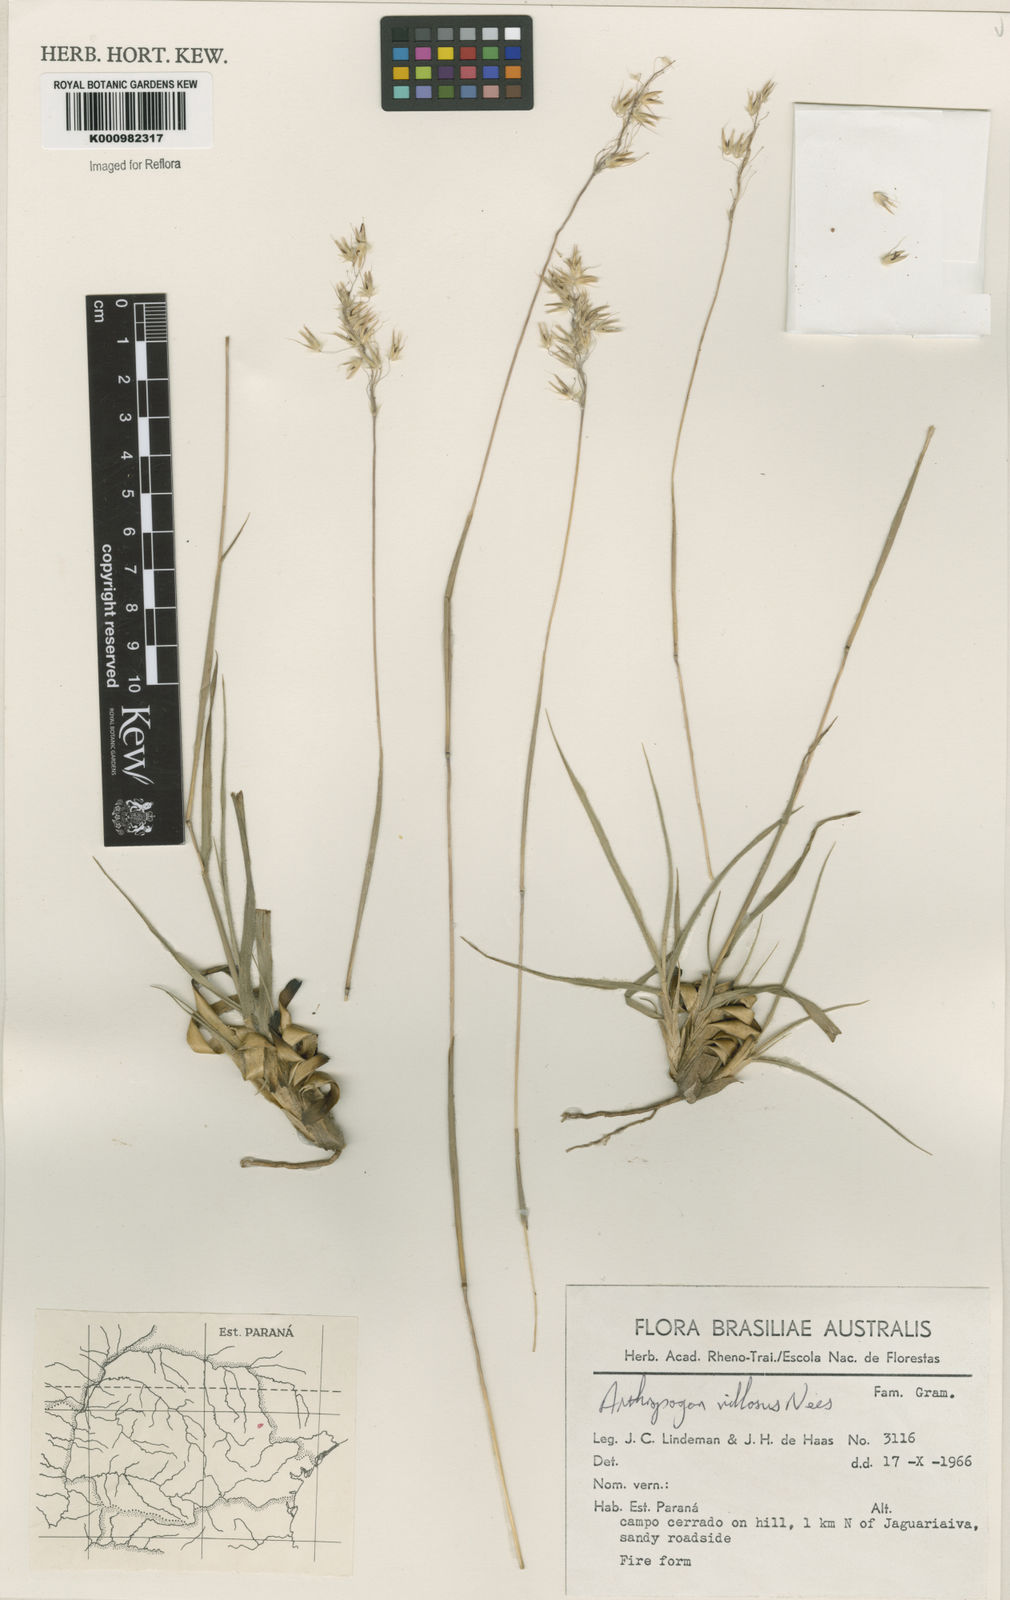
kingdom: Plantae
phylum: Tracheophyta
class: Liliopsida
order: Poales
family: Poaceae
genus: Arthropogon
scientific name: Arthropogon villosus
